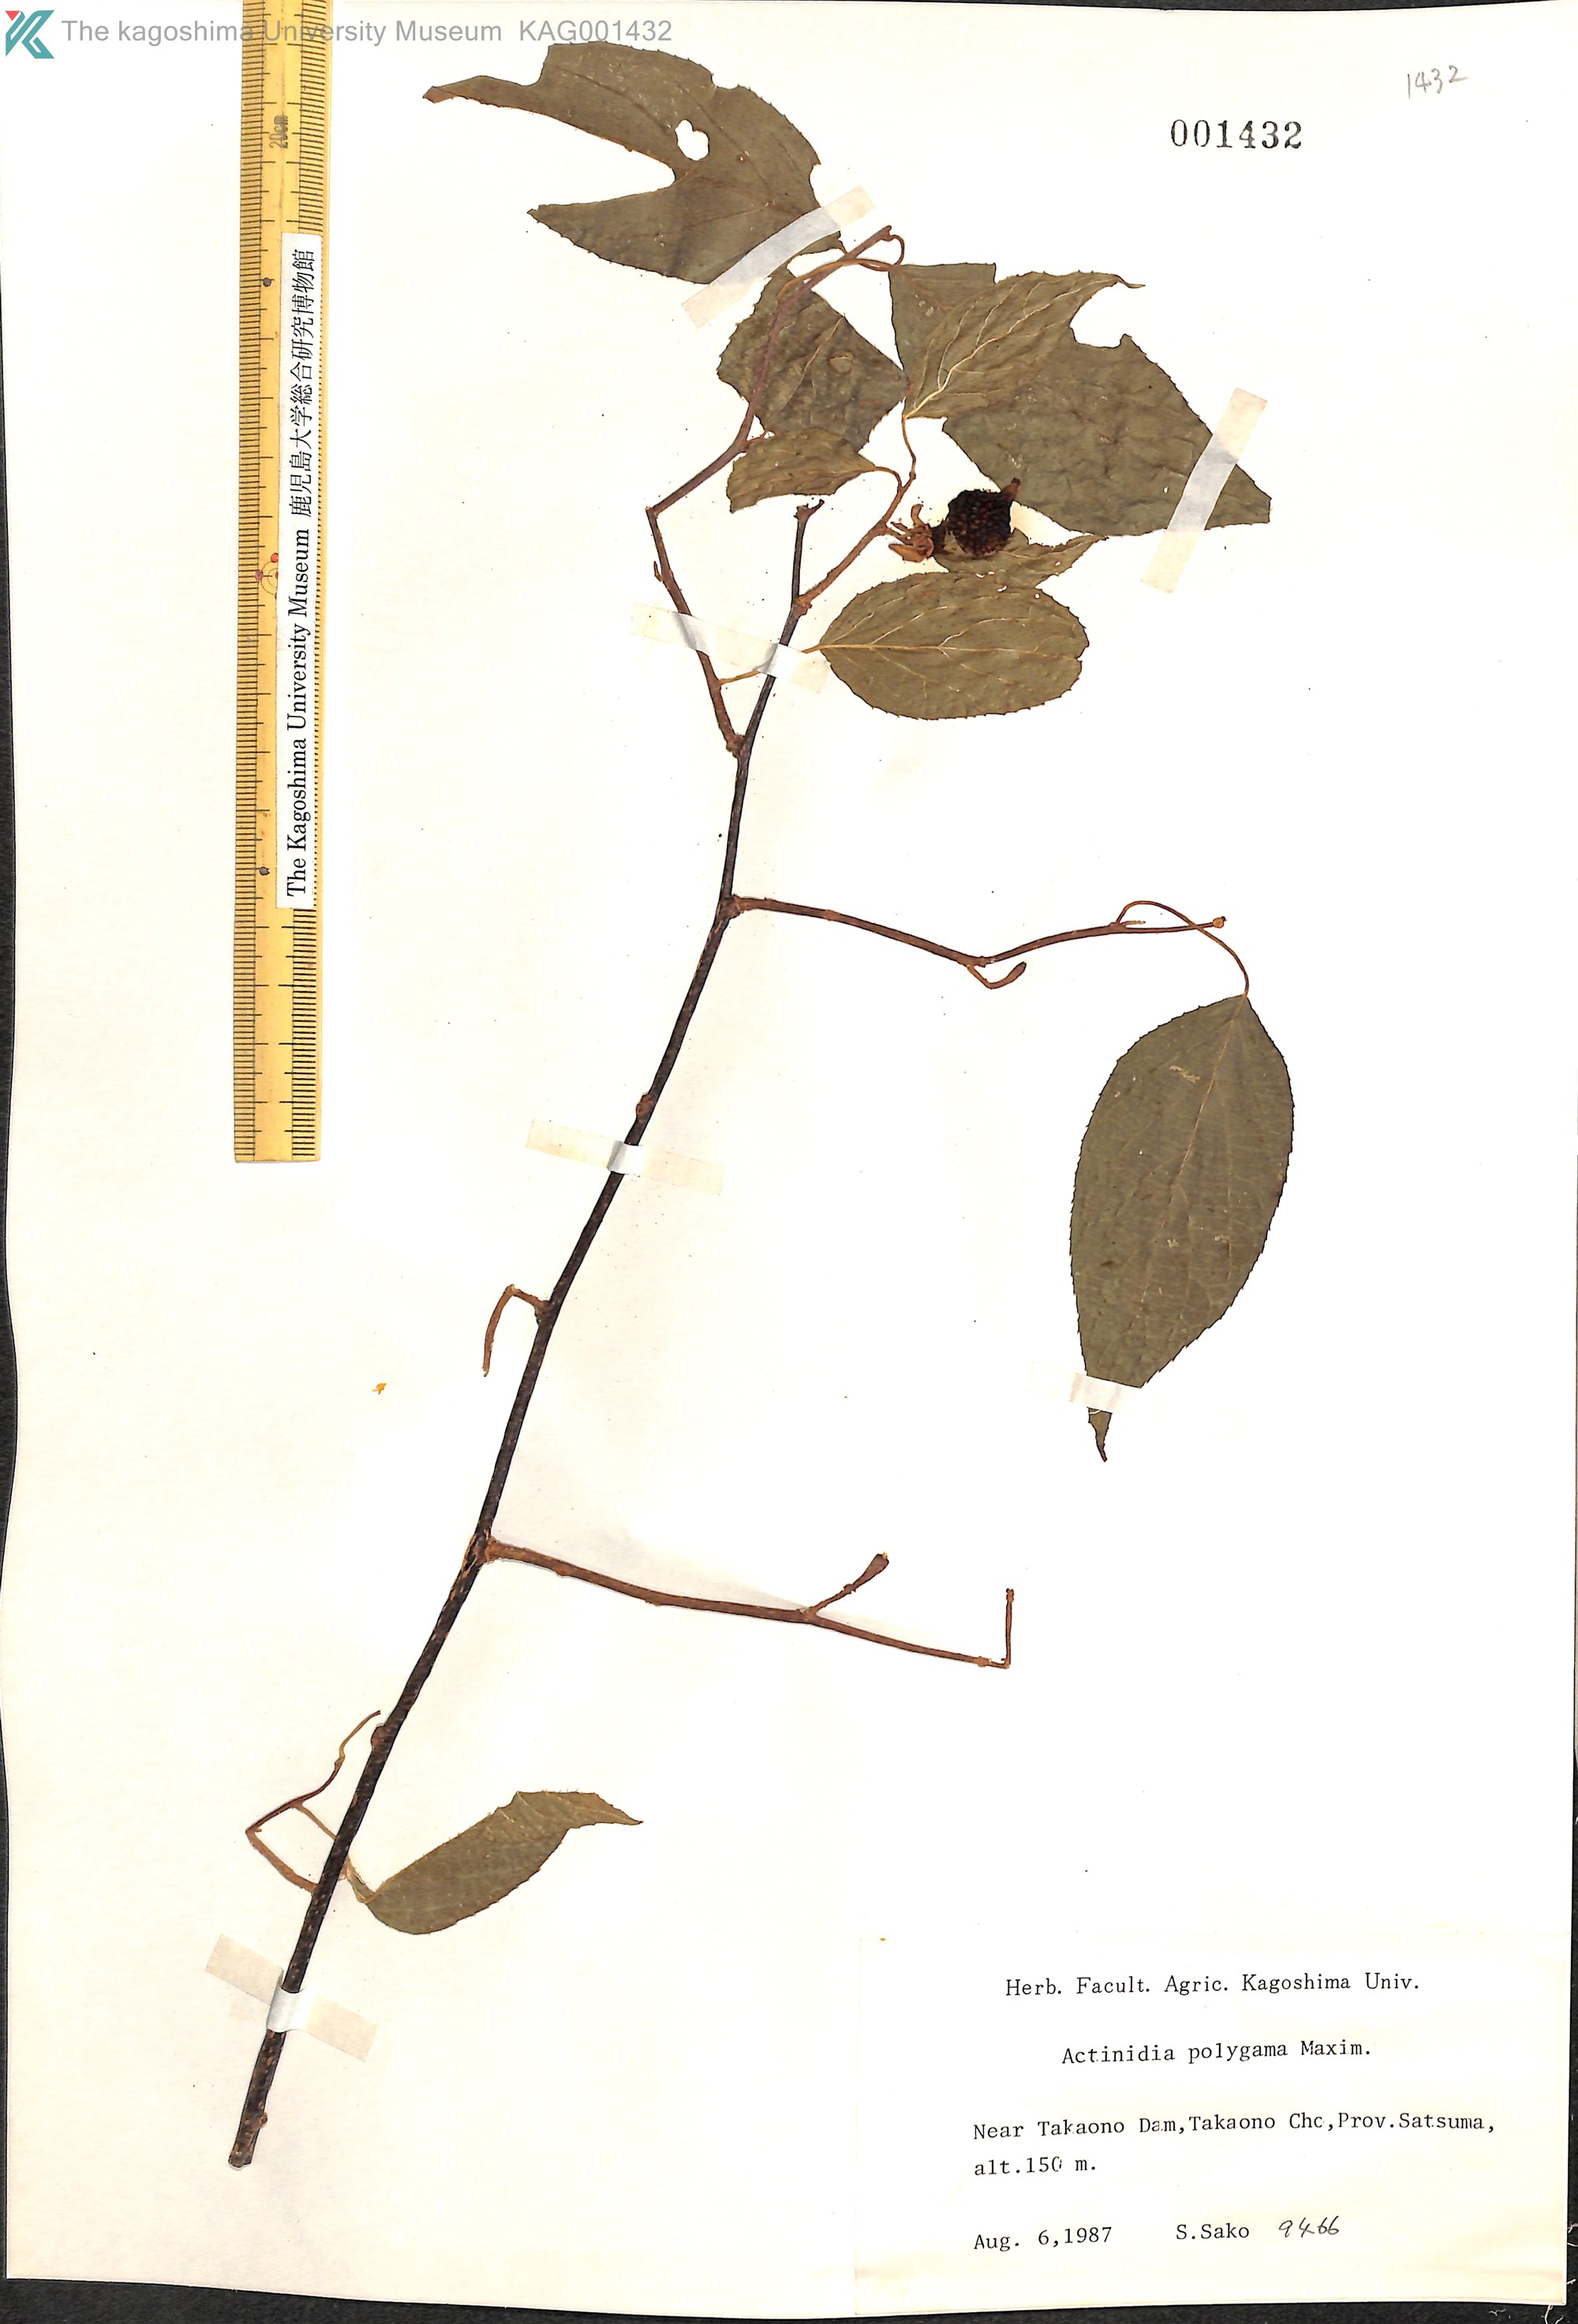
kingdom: Plantae
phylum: Tracheophyta
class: Magnoliopsida
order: Ericales
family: Actinidiaceae
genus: Actinidia
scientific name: Actinidia polygama
